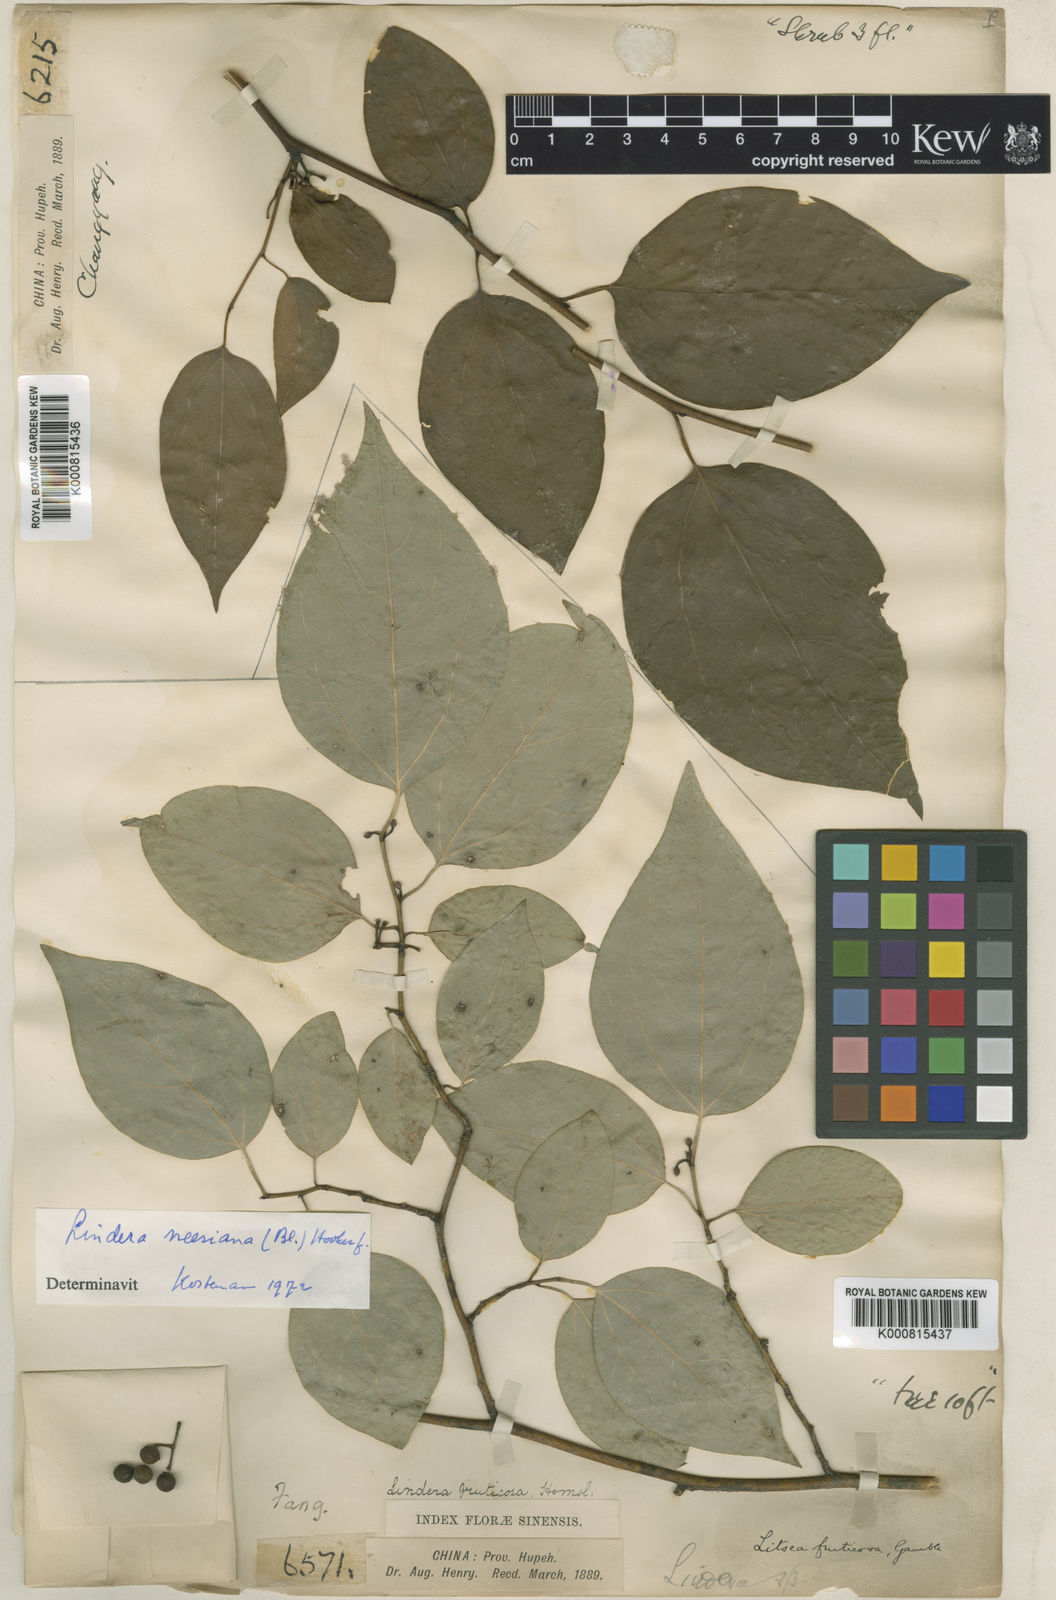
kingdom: Plantae
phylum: Tracheophyta
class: Magnoliopsida
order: Laurales
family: Lauraceae
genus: Lindera
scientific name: Lindera
